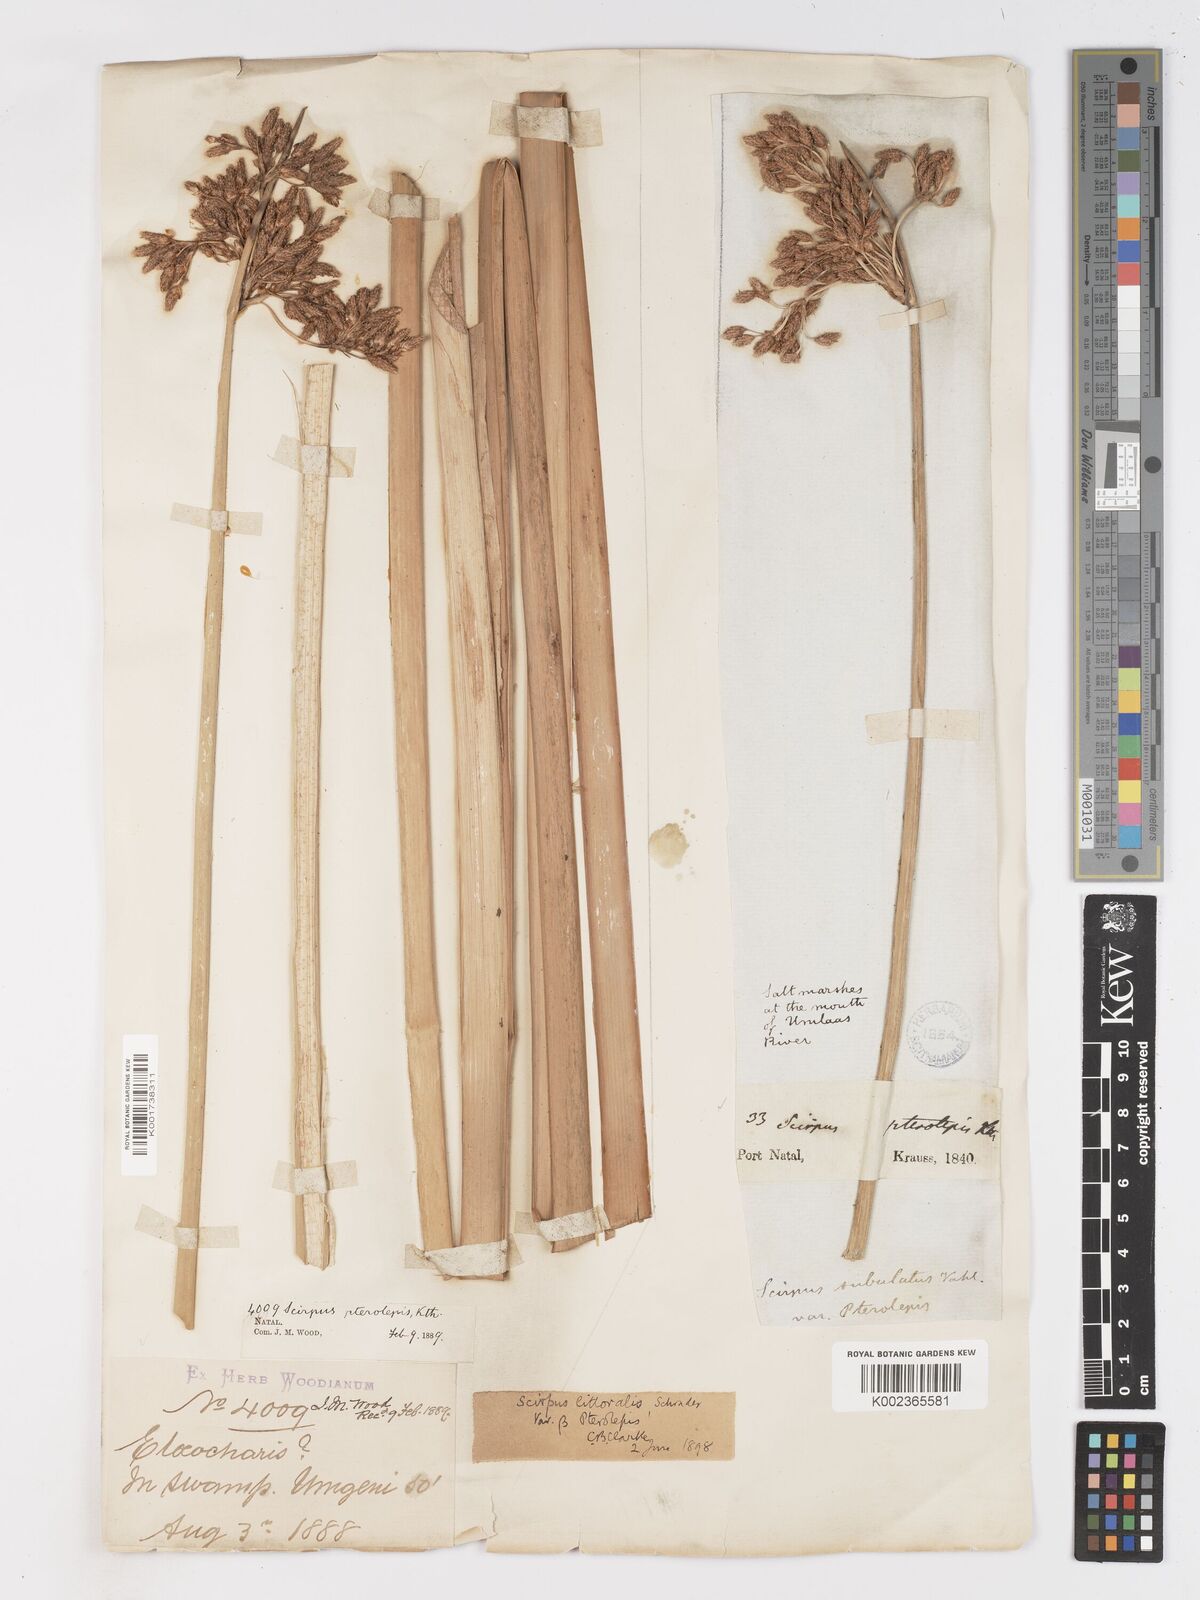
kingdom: Plantae
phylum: Tracheophyta
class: Liliopsida
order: Poales
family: Cyperaceae
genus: Schoenoplectus
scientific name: Schoenoplectus litoralis
